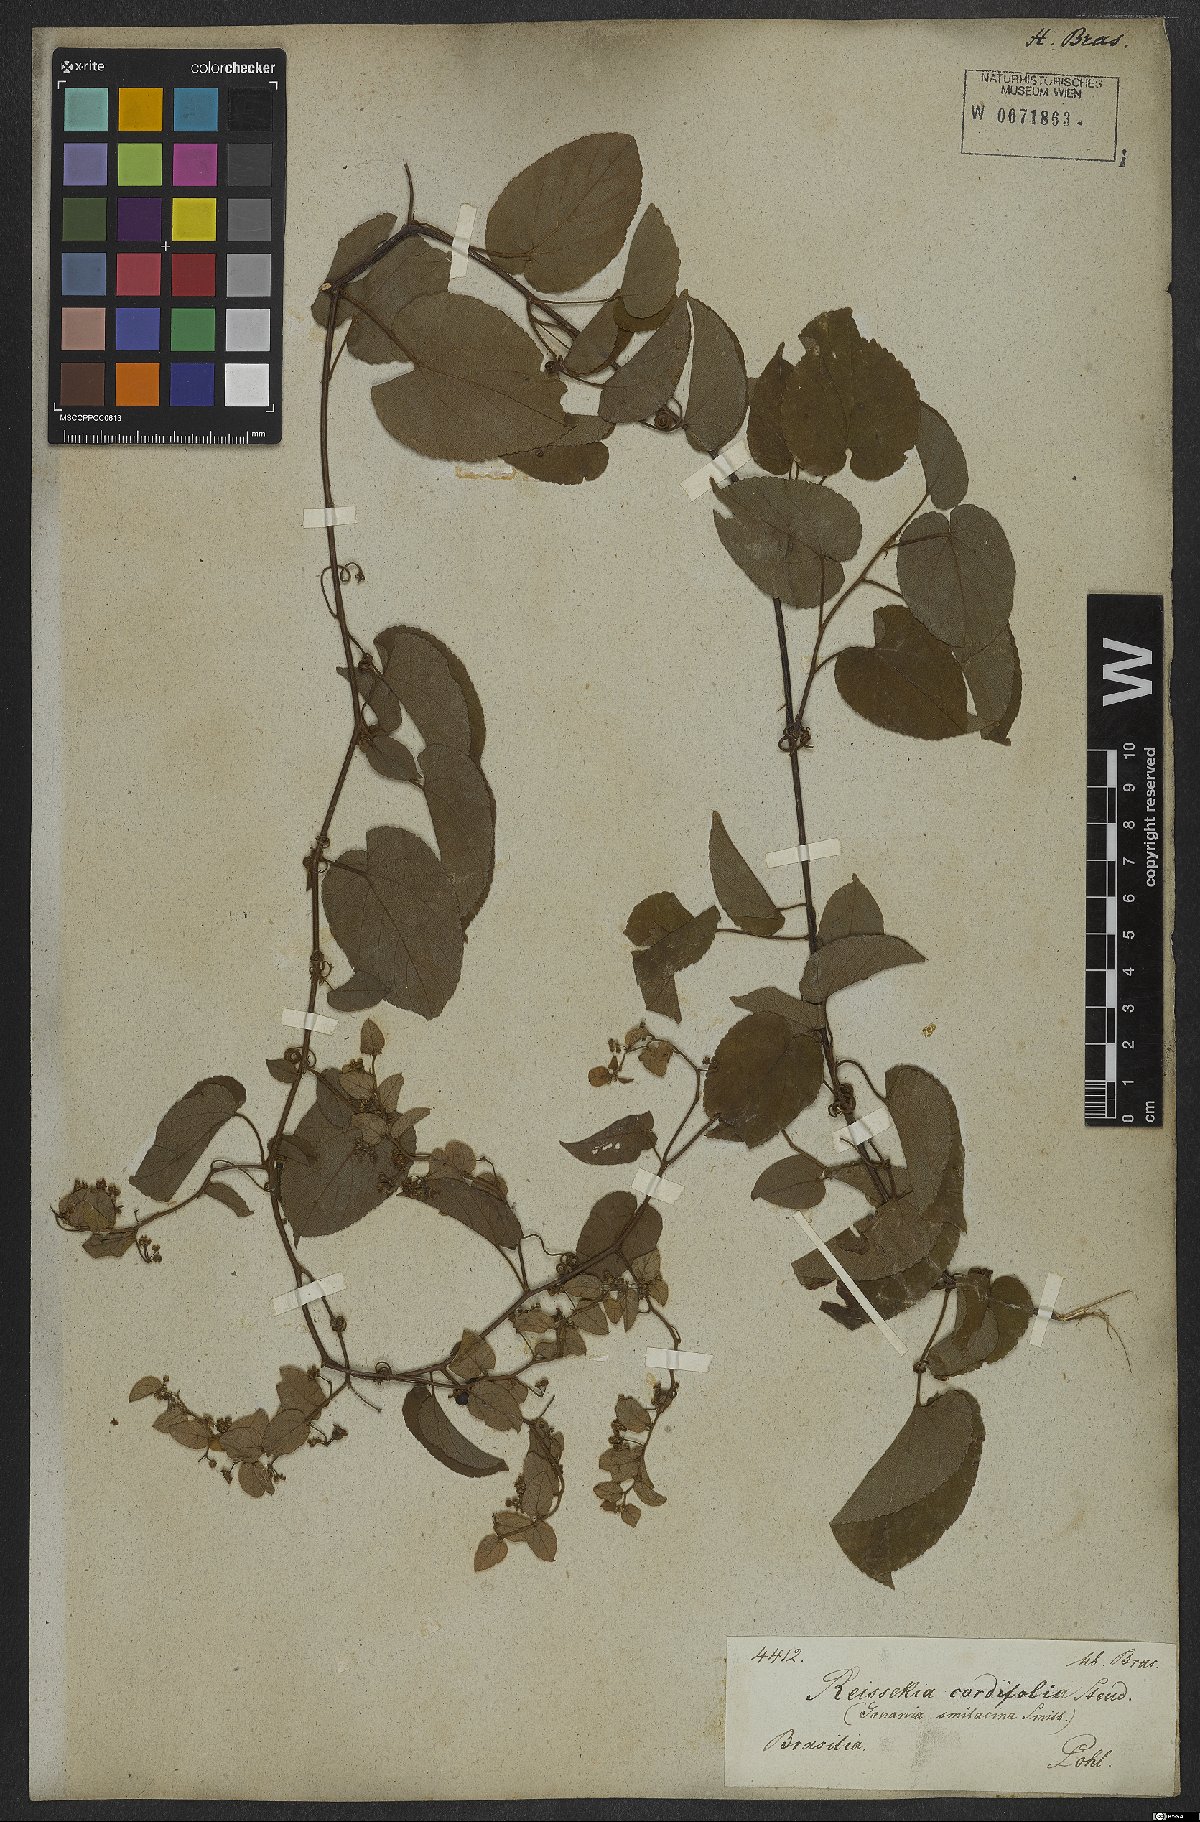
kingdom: Plantae
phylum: Tracheophyta
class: Magnoliopsida
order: Rosales
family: Rhamnaceae
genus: Reissekia
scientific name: Reissekia smilacina
